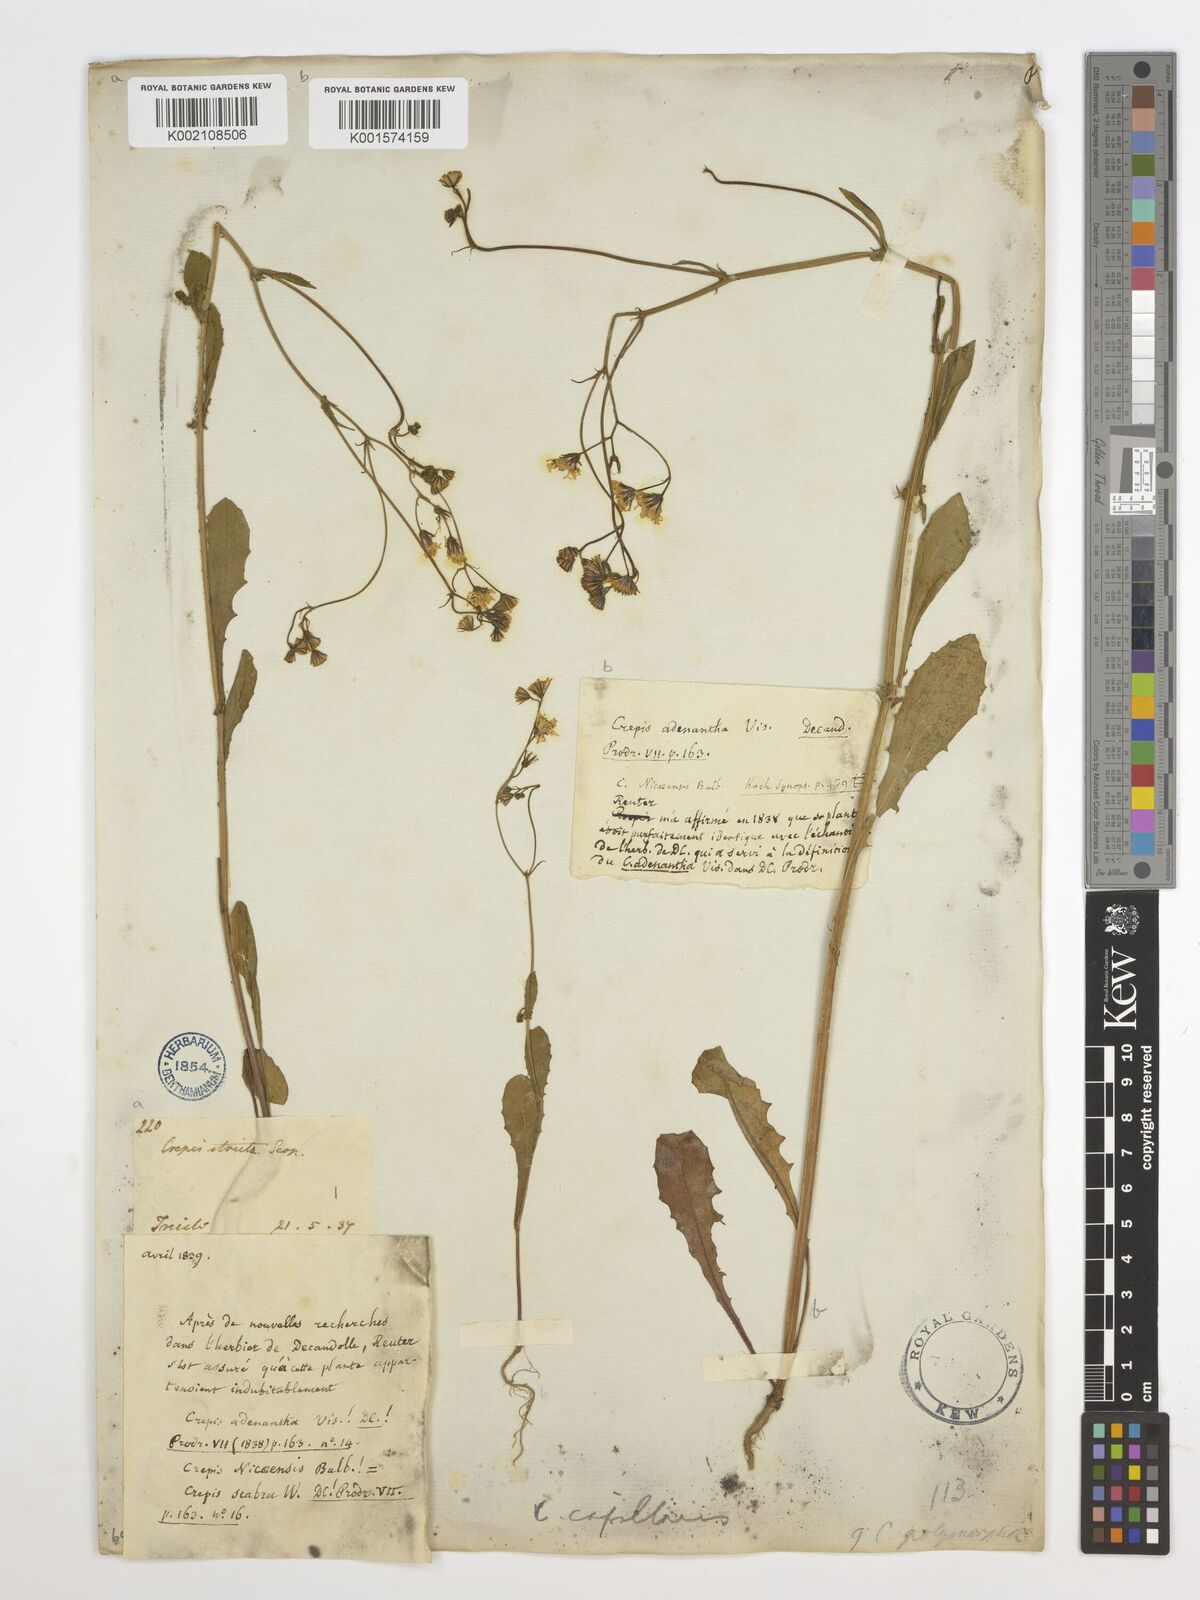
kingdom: Plantae
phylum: Tracheophyta
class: Magnoliopsida
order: Asterales
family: Asteraceae
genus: Crepis
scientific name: Crepis neglecta
